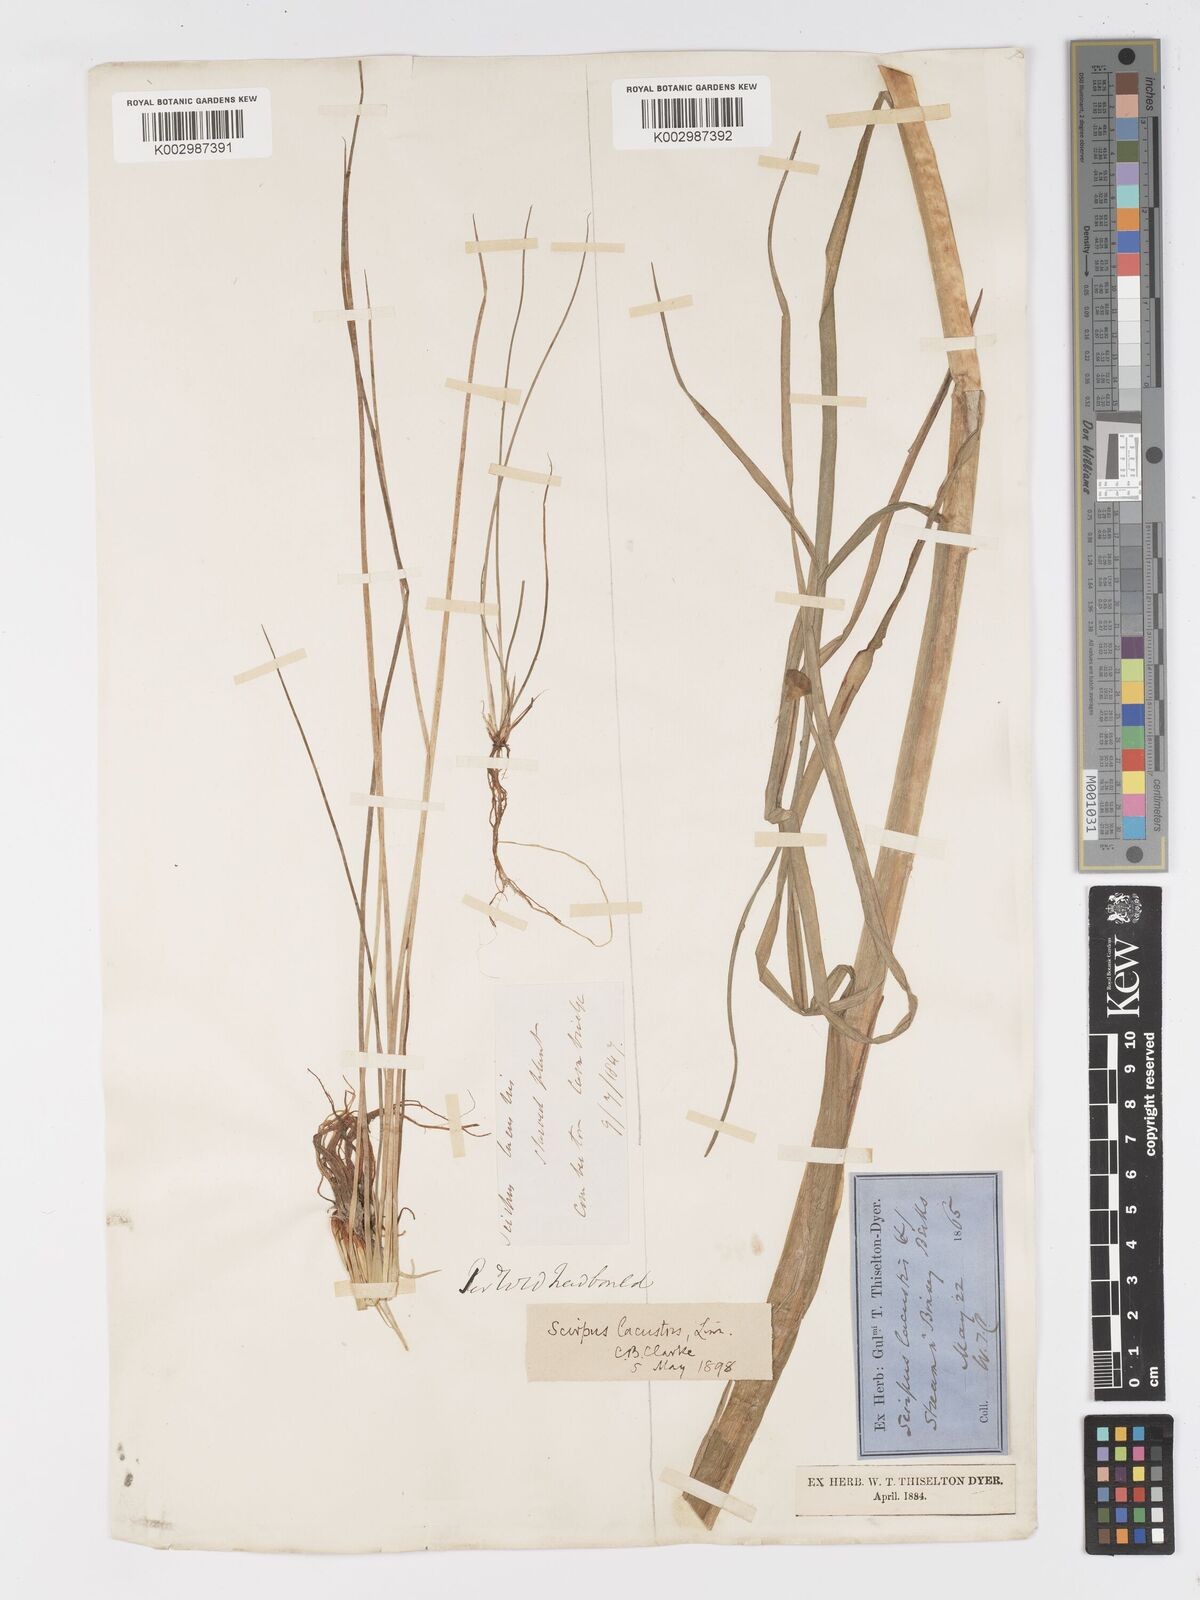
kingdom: Plantae
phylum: Tracheophyta
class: Liliopsida
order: Poales
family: Cyperaceae
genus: Schoenoplectus
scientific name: Schoenoplectus lacustris
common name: Common club-rush
